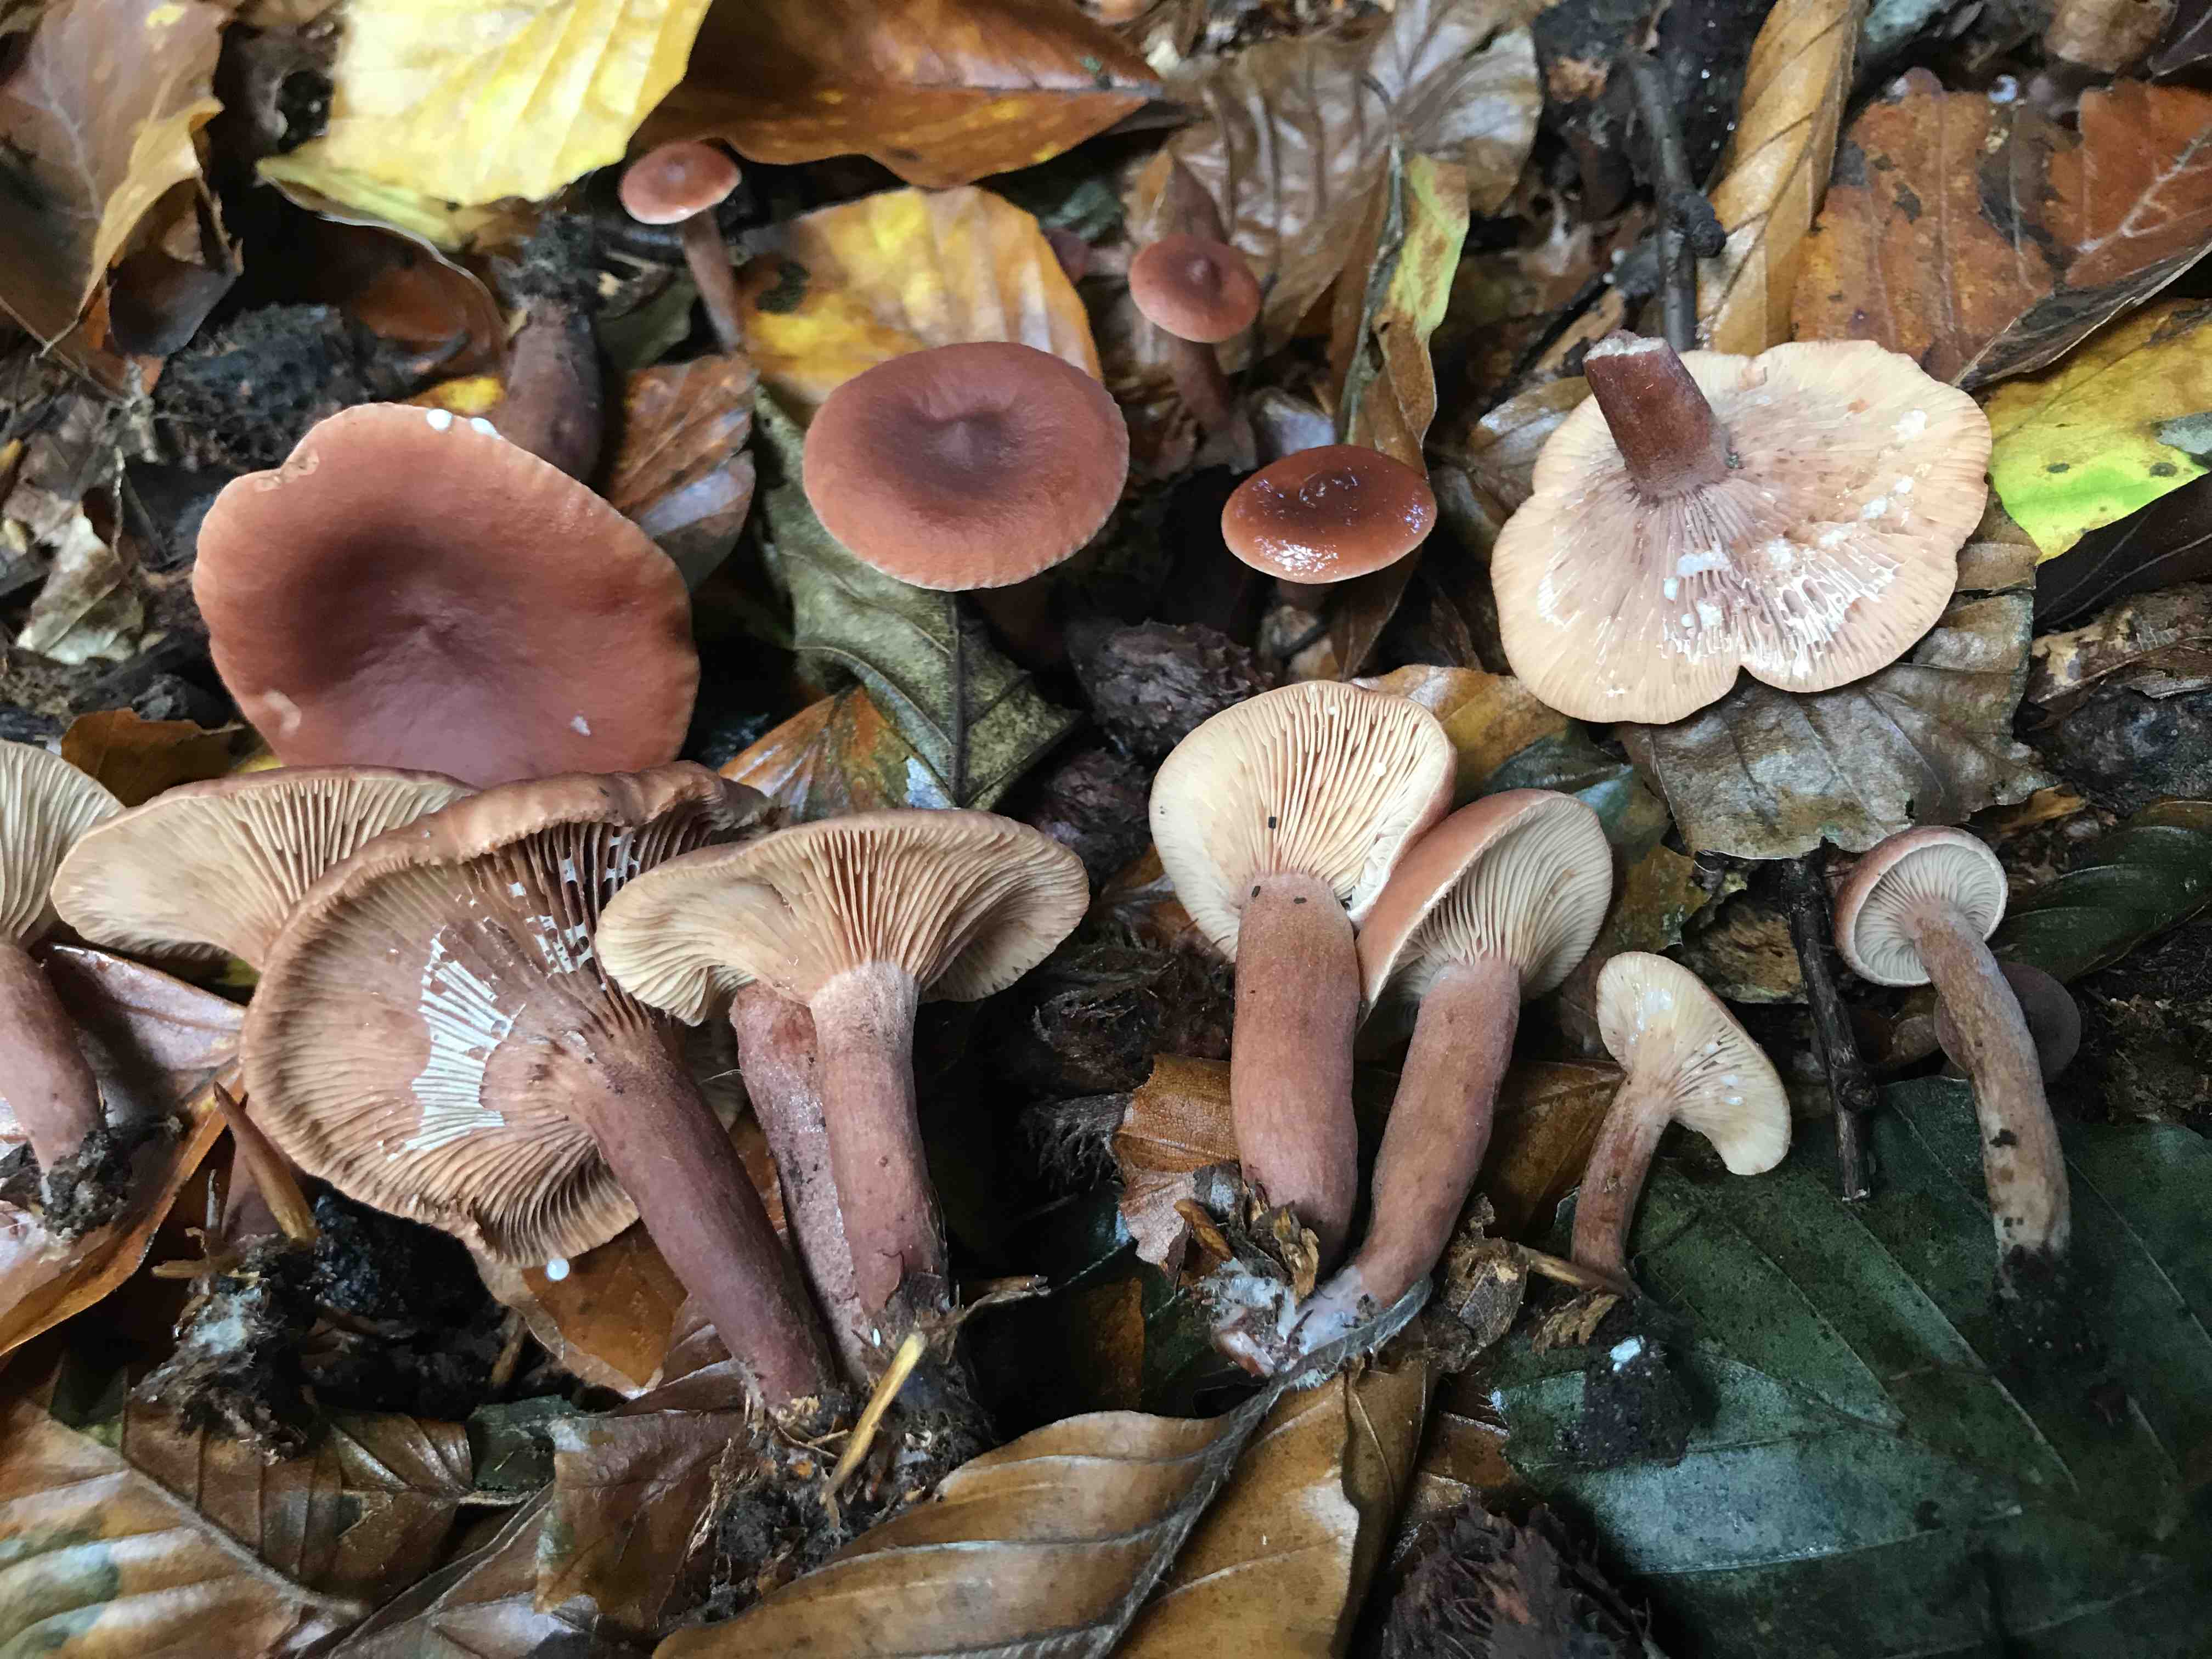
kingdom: Fungi
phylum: Basidiomycota
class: Agaricomycetes
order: Russulales
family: Russulaceae
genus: Lactarius
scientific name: Lactarius camphoratus
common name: kamfer-mælkehat
